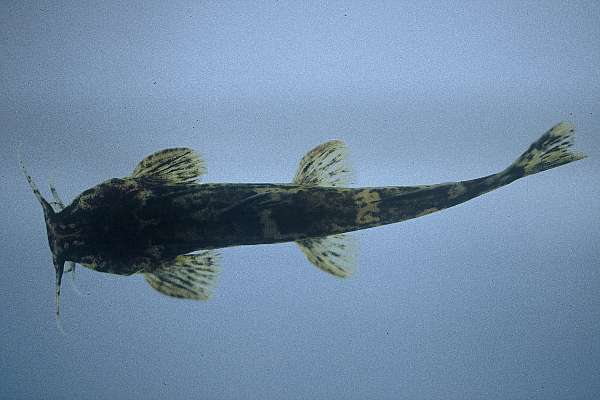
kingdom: Animalia
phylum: Chordata
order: Siluriformes
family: Amphiliidae
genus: Amphilius
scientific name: Amphilius uranoscopus
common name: Stargazer mountain catfish
